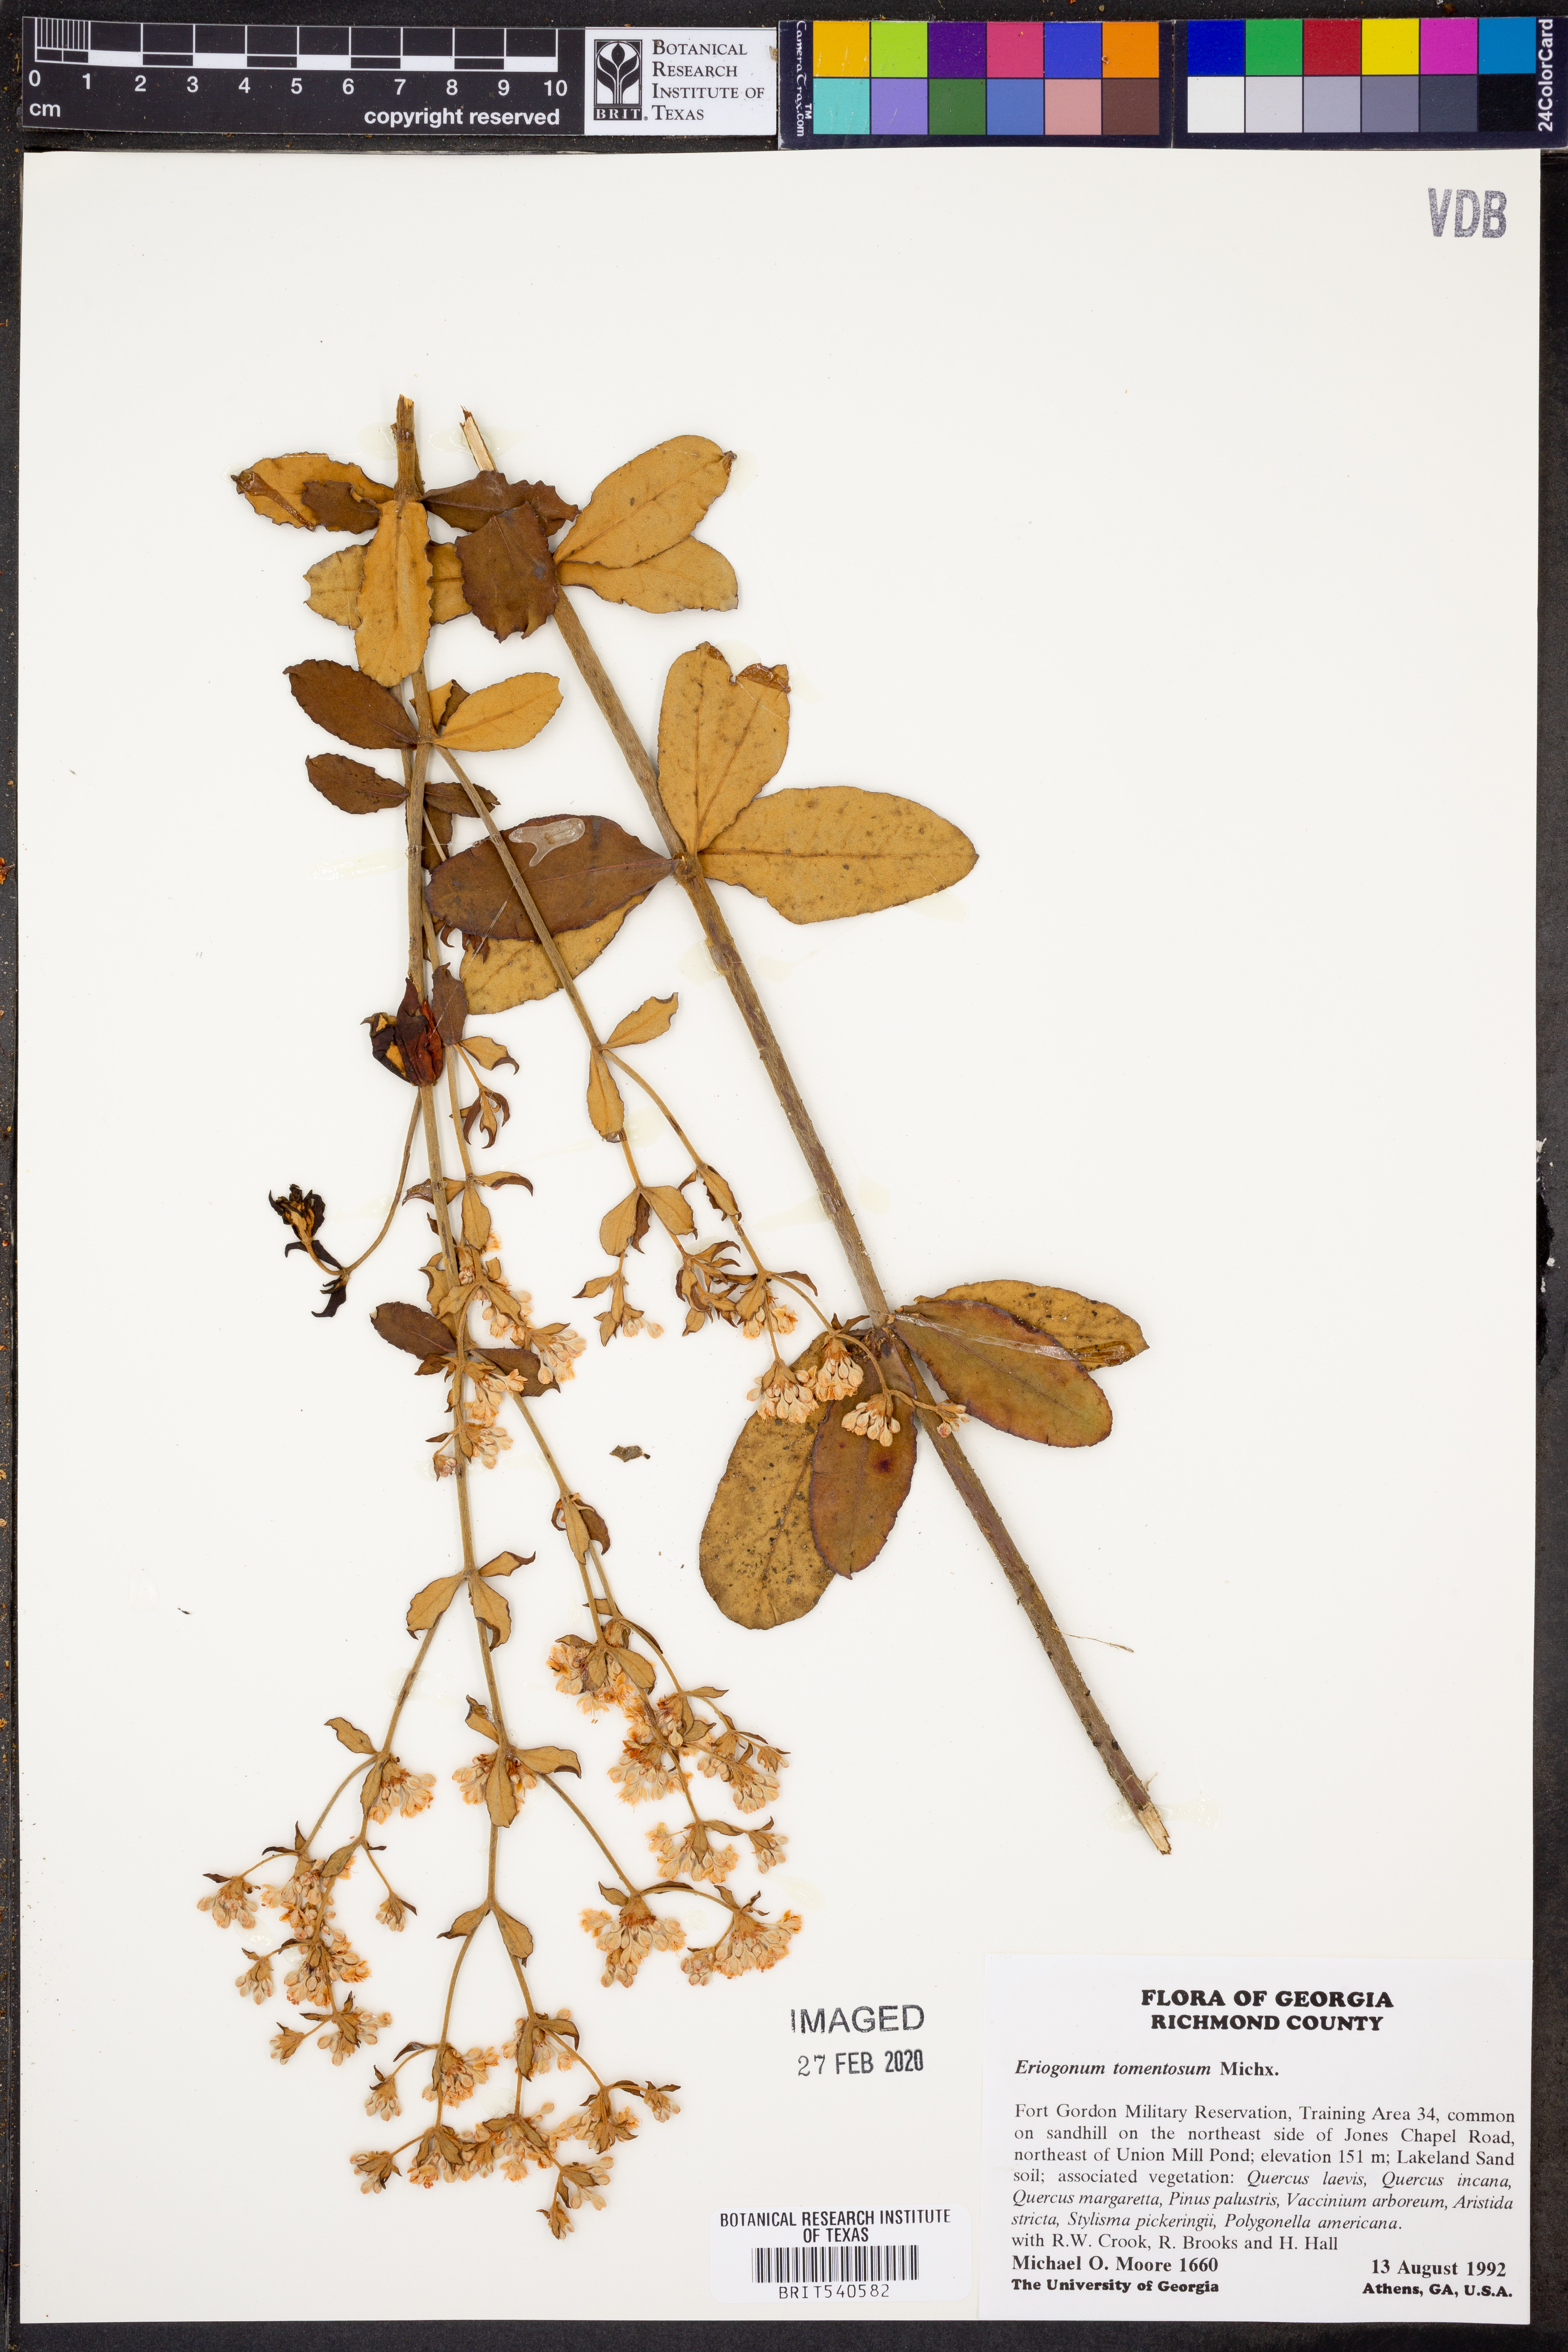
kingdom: Plantae
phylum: Tracheophyta
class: Magnoliopsida
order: Caryophyllales
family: Polygonaceae
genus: Eriogonum
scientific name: Eriogonum tomentosum
